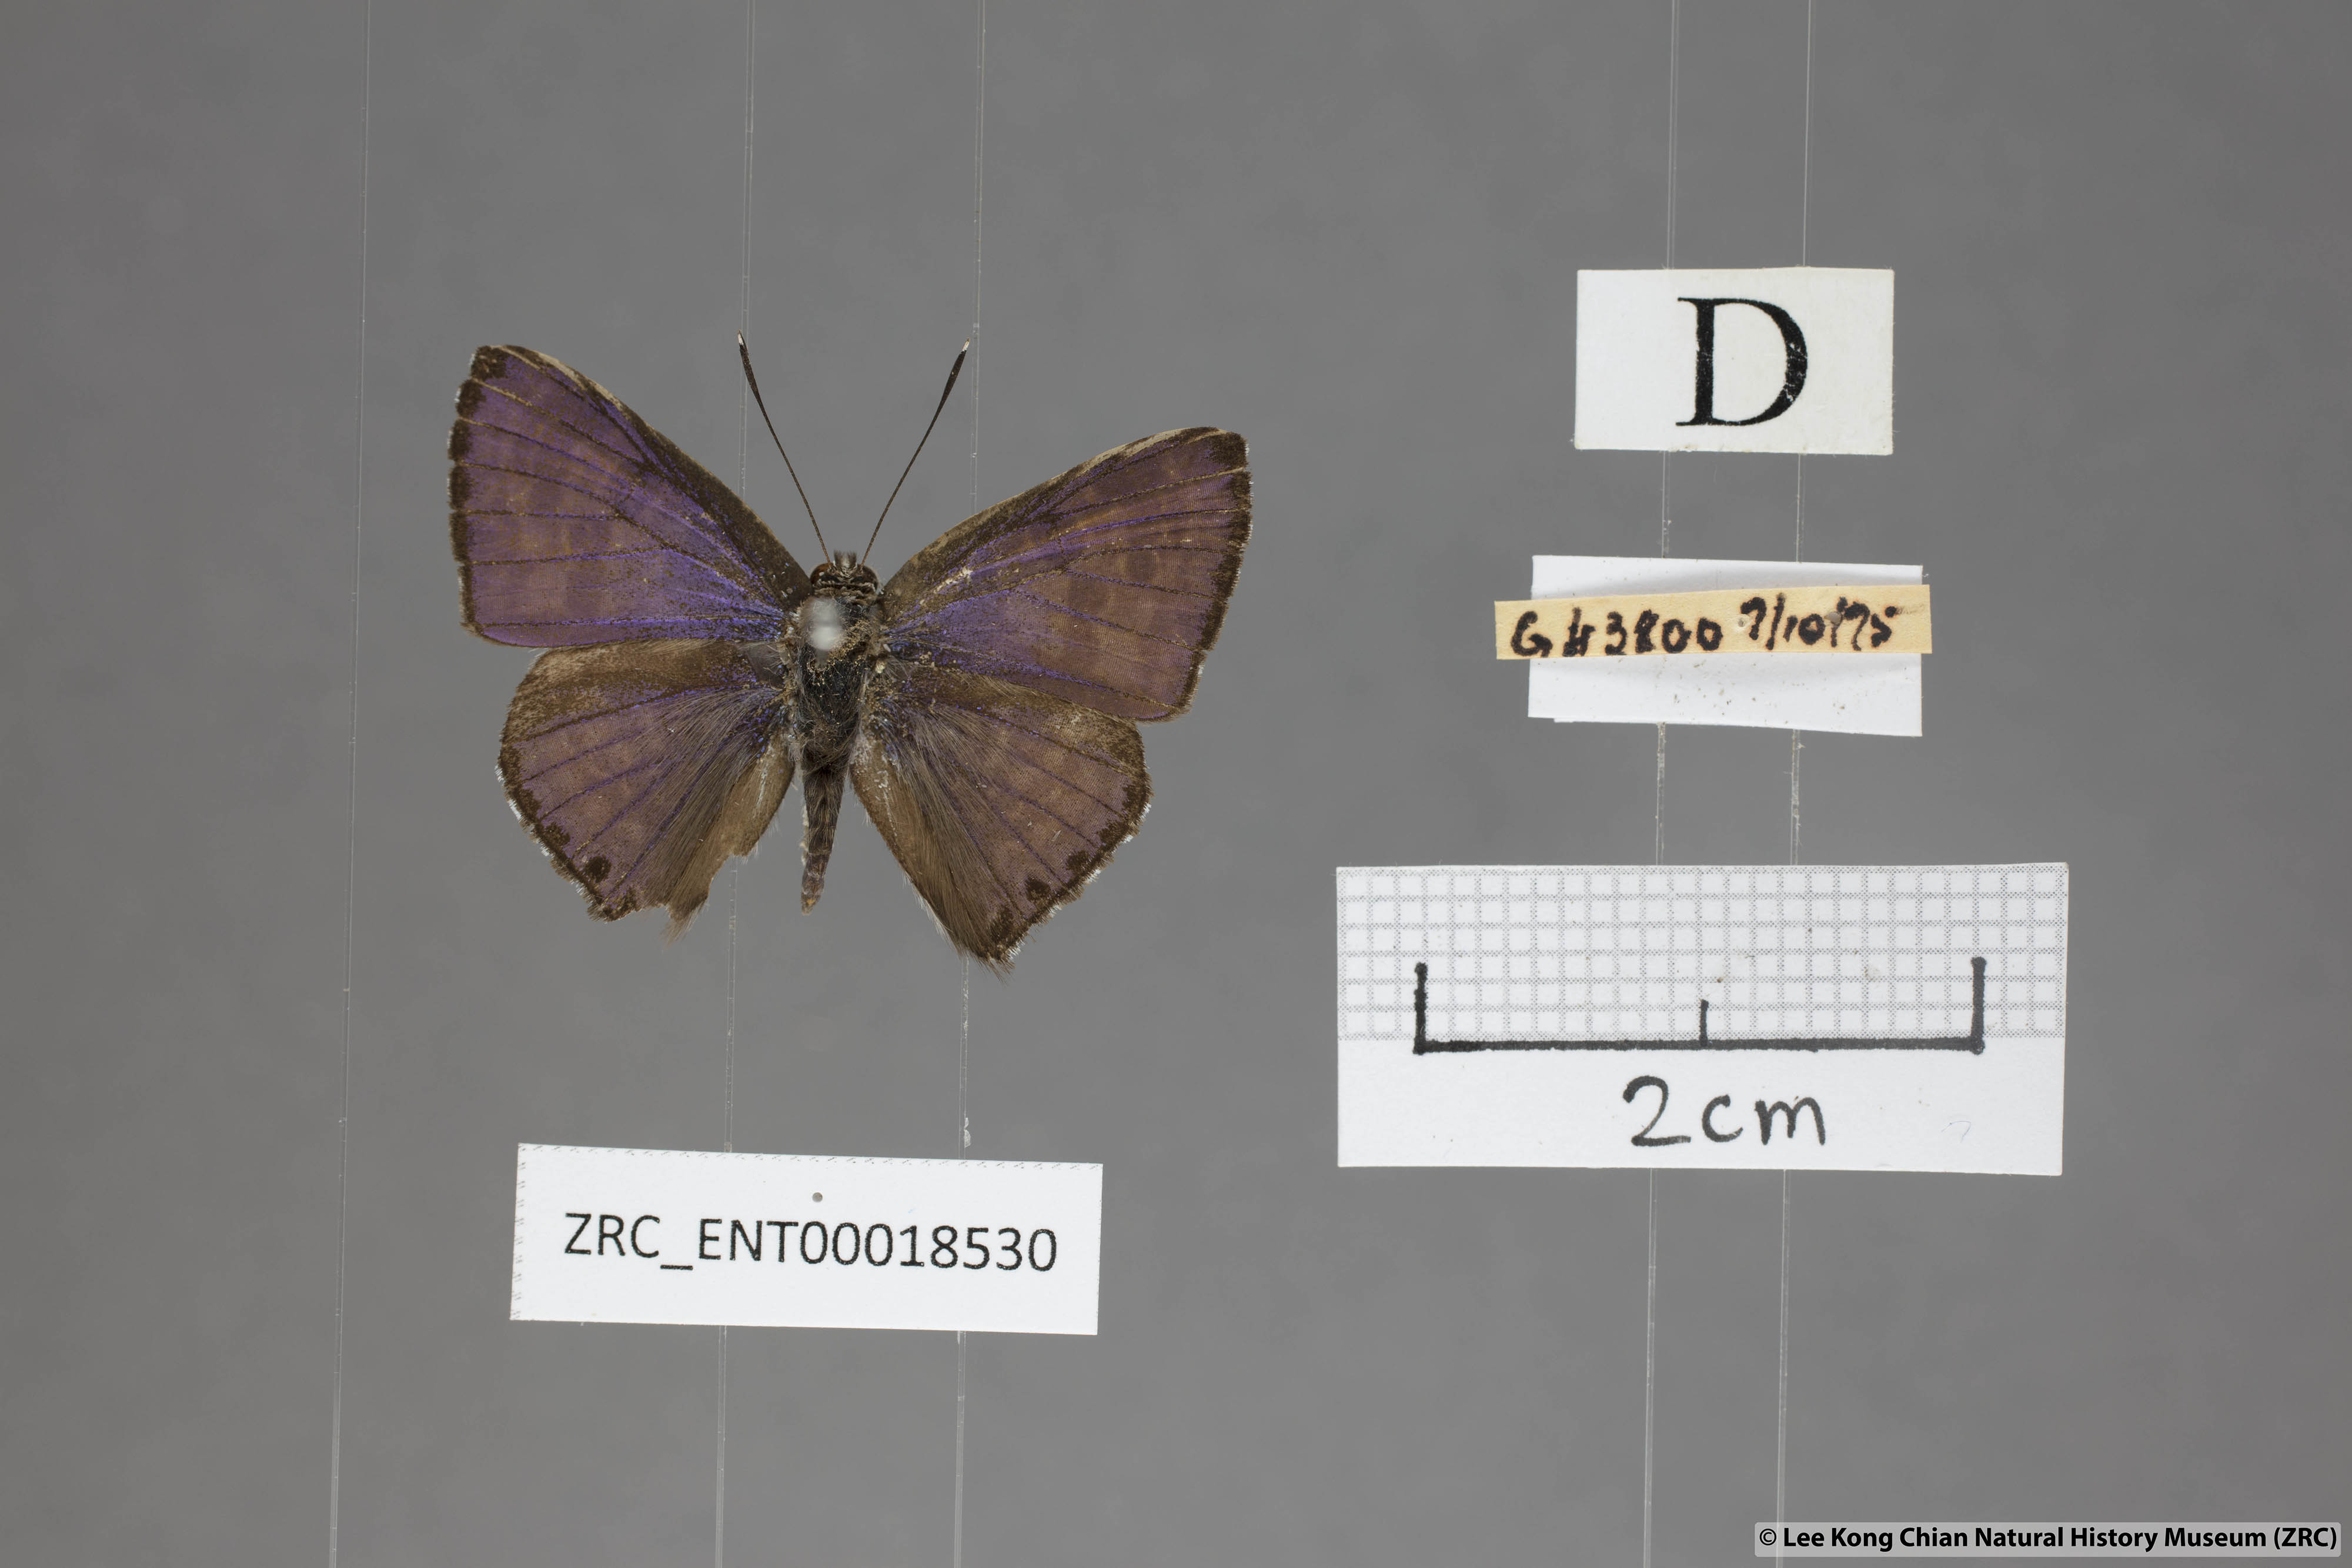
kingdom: Animalia
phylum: Arthropoda
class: Insecta
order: Lepidoptera
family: Lycaenidae
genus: Niphanda
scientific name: Niphanda tessellata
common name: Large pointed pierrot
